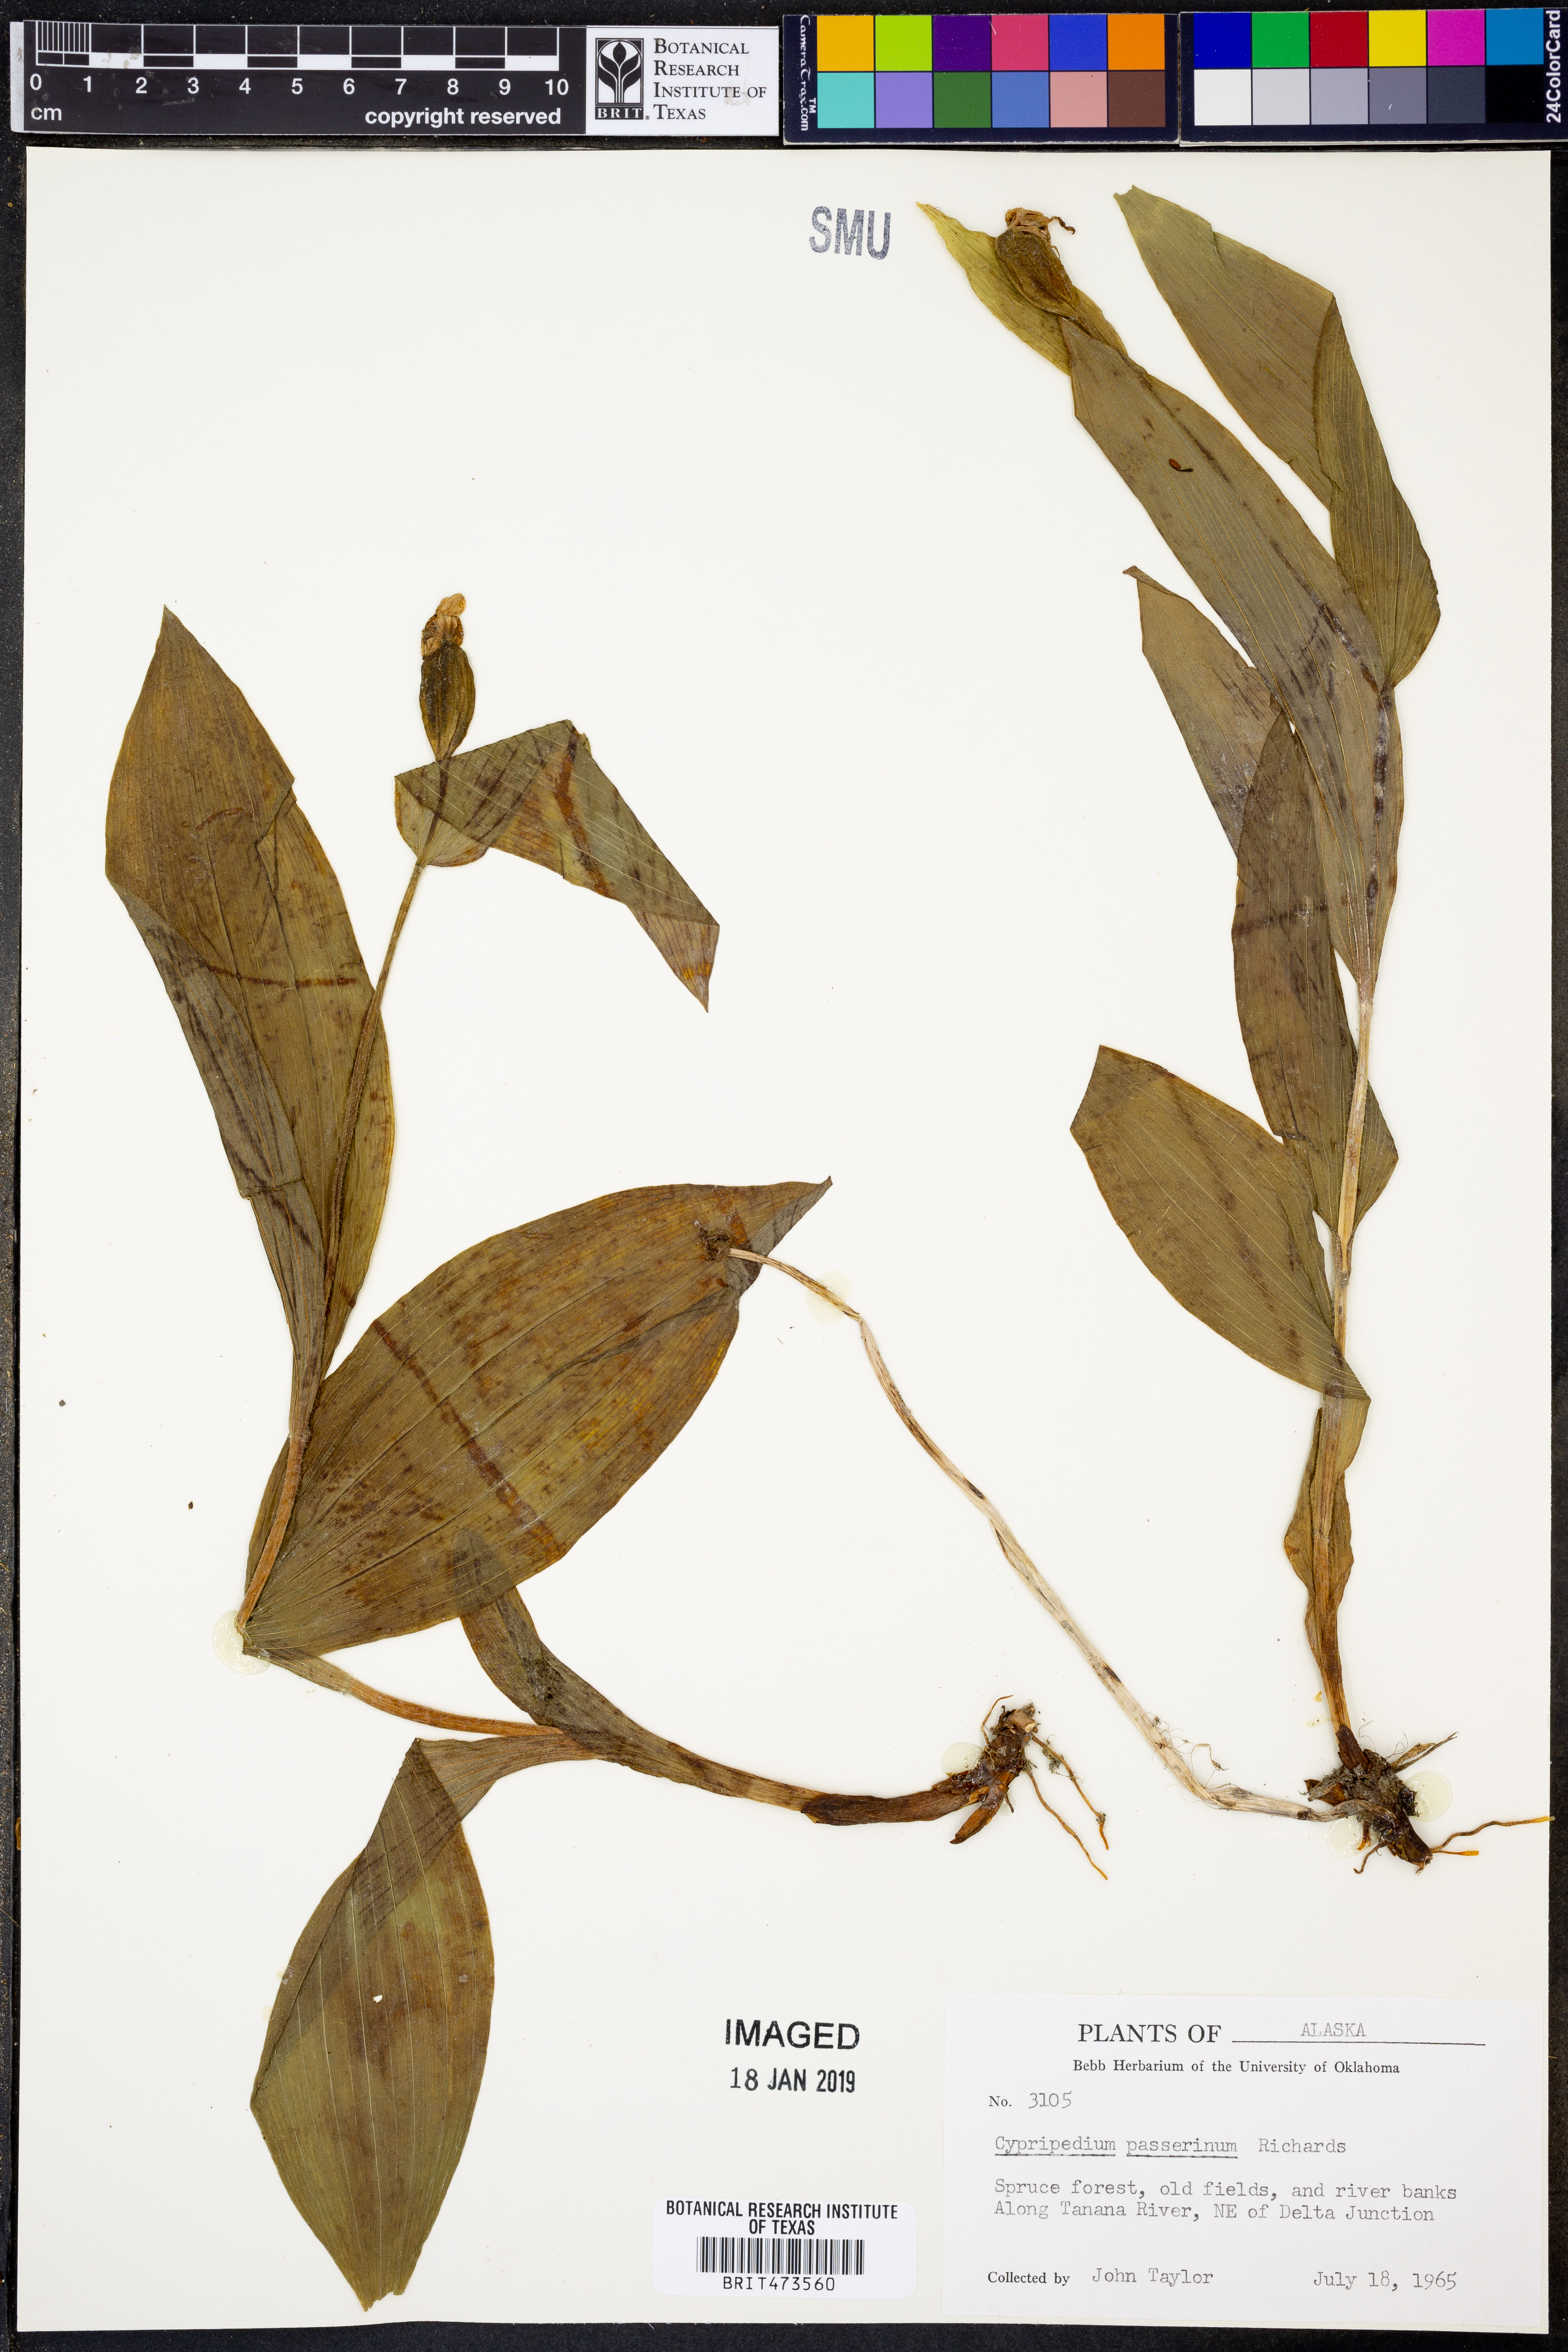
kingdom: Plantae
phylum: Tracheophyta
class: Liliopsida
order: Asparagales
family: Orchidaceae
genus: Cypripedium
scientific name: Cypripedium passerinum
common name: Sparrow's-egg lady's-slipper
